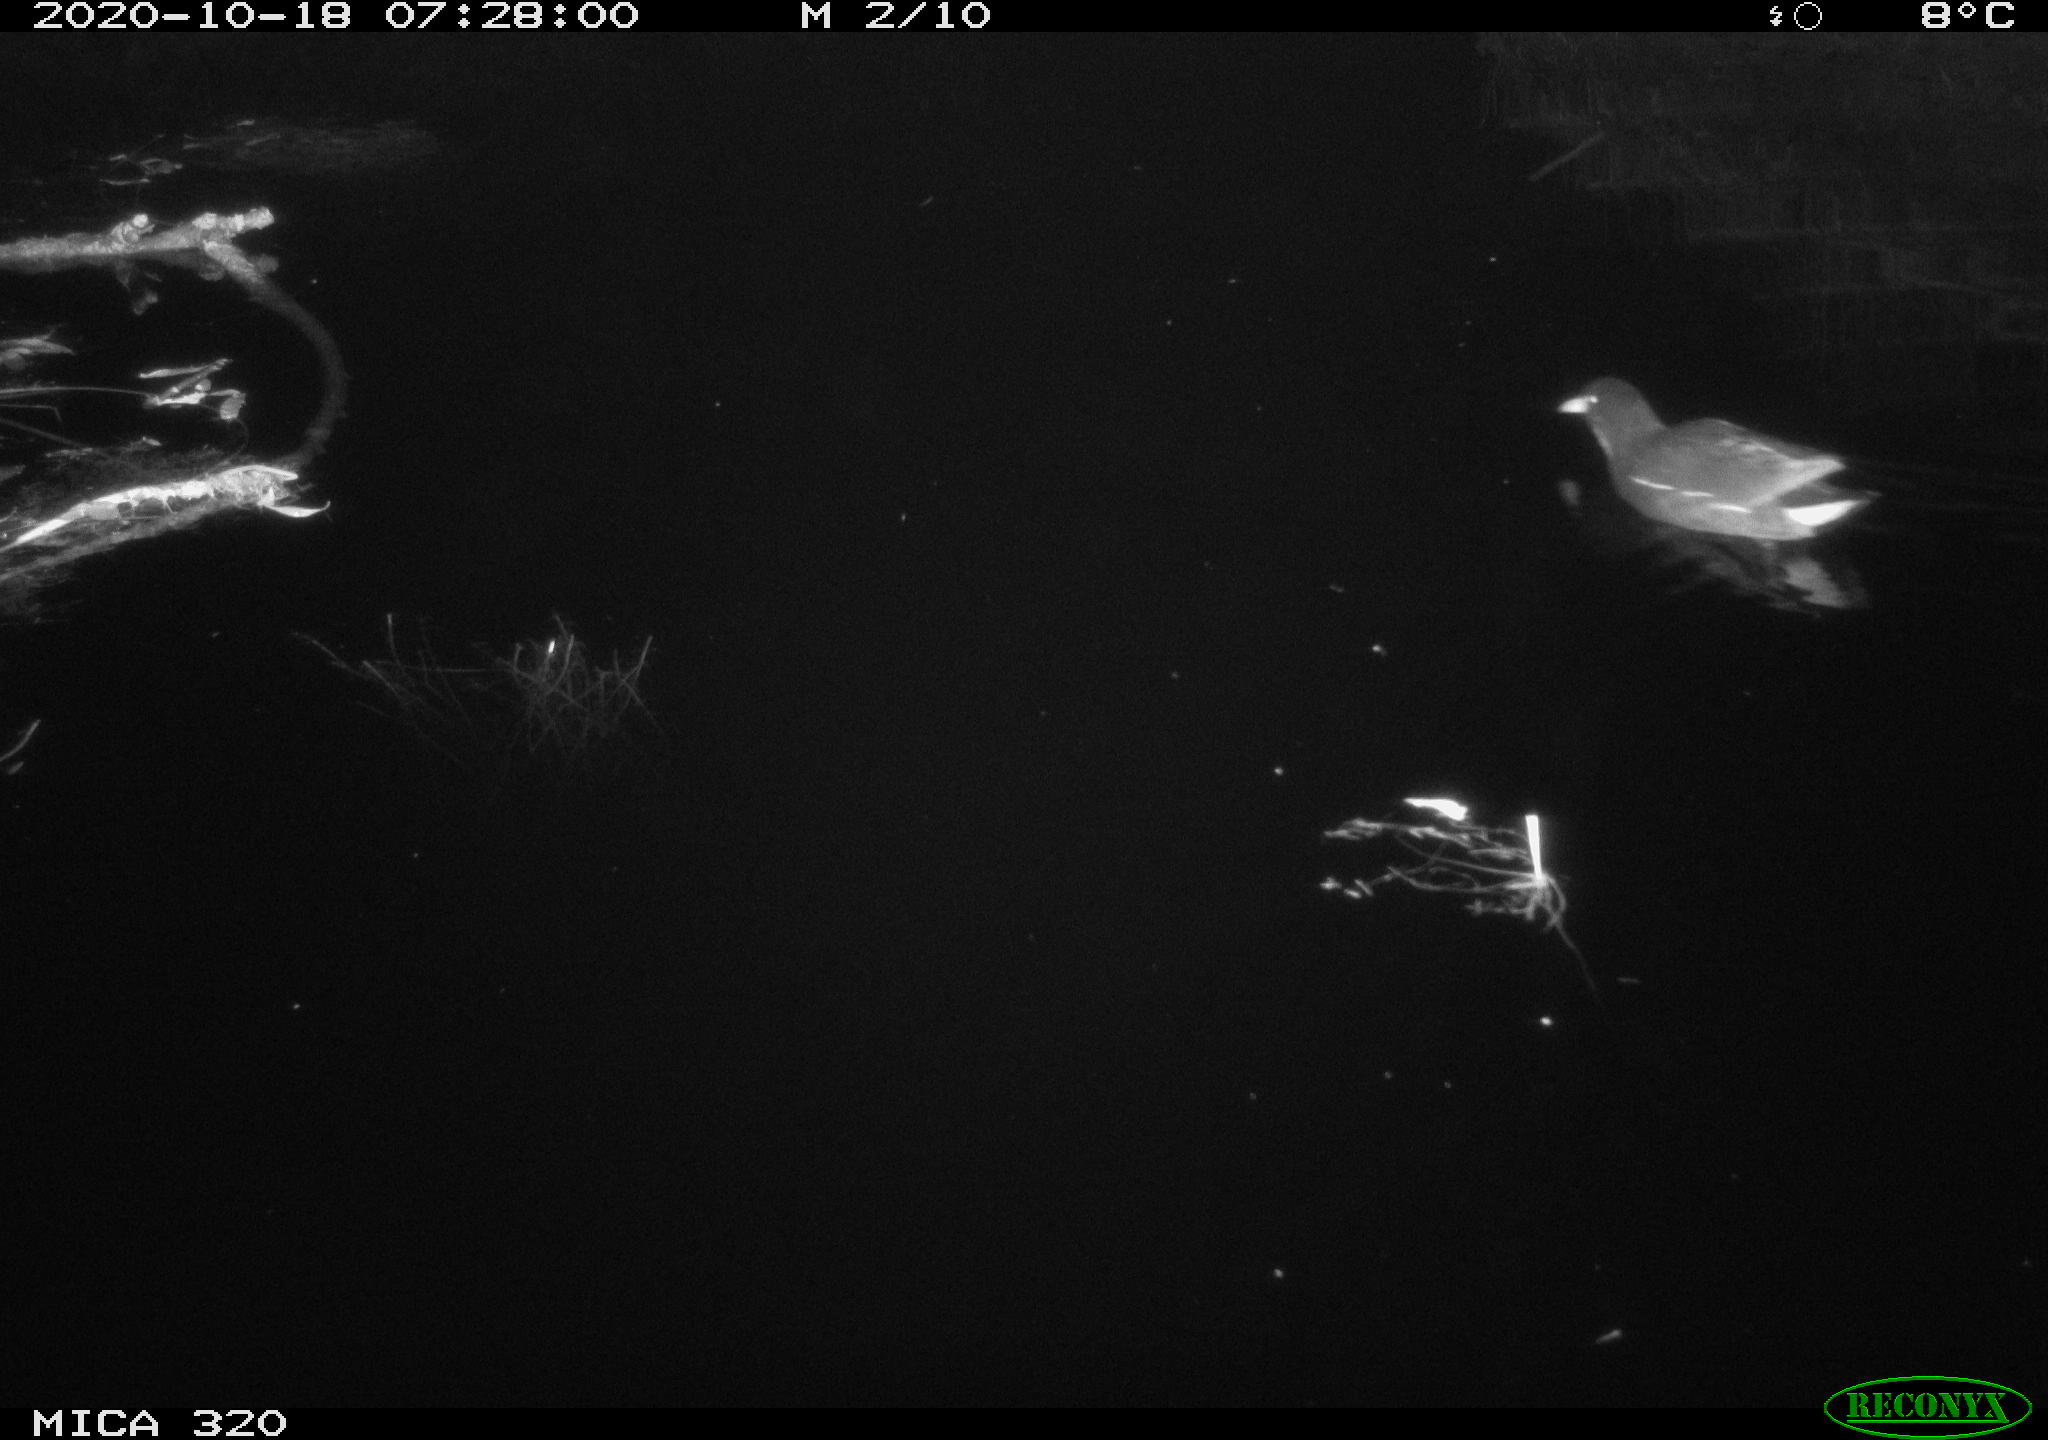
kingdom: Animalia
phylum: Chordata
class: Aves
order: Gruiformes
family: Rallidae
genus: Gallinula
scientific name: Gallinula chloropus
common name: Common moorhen
